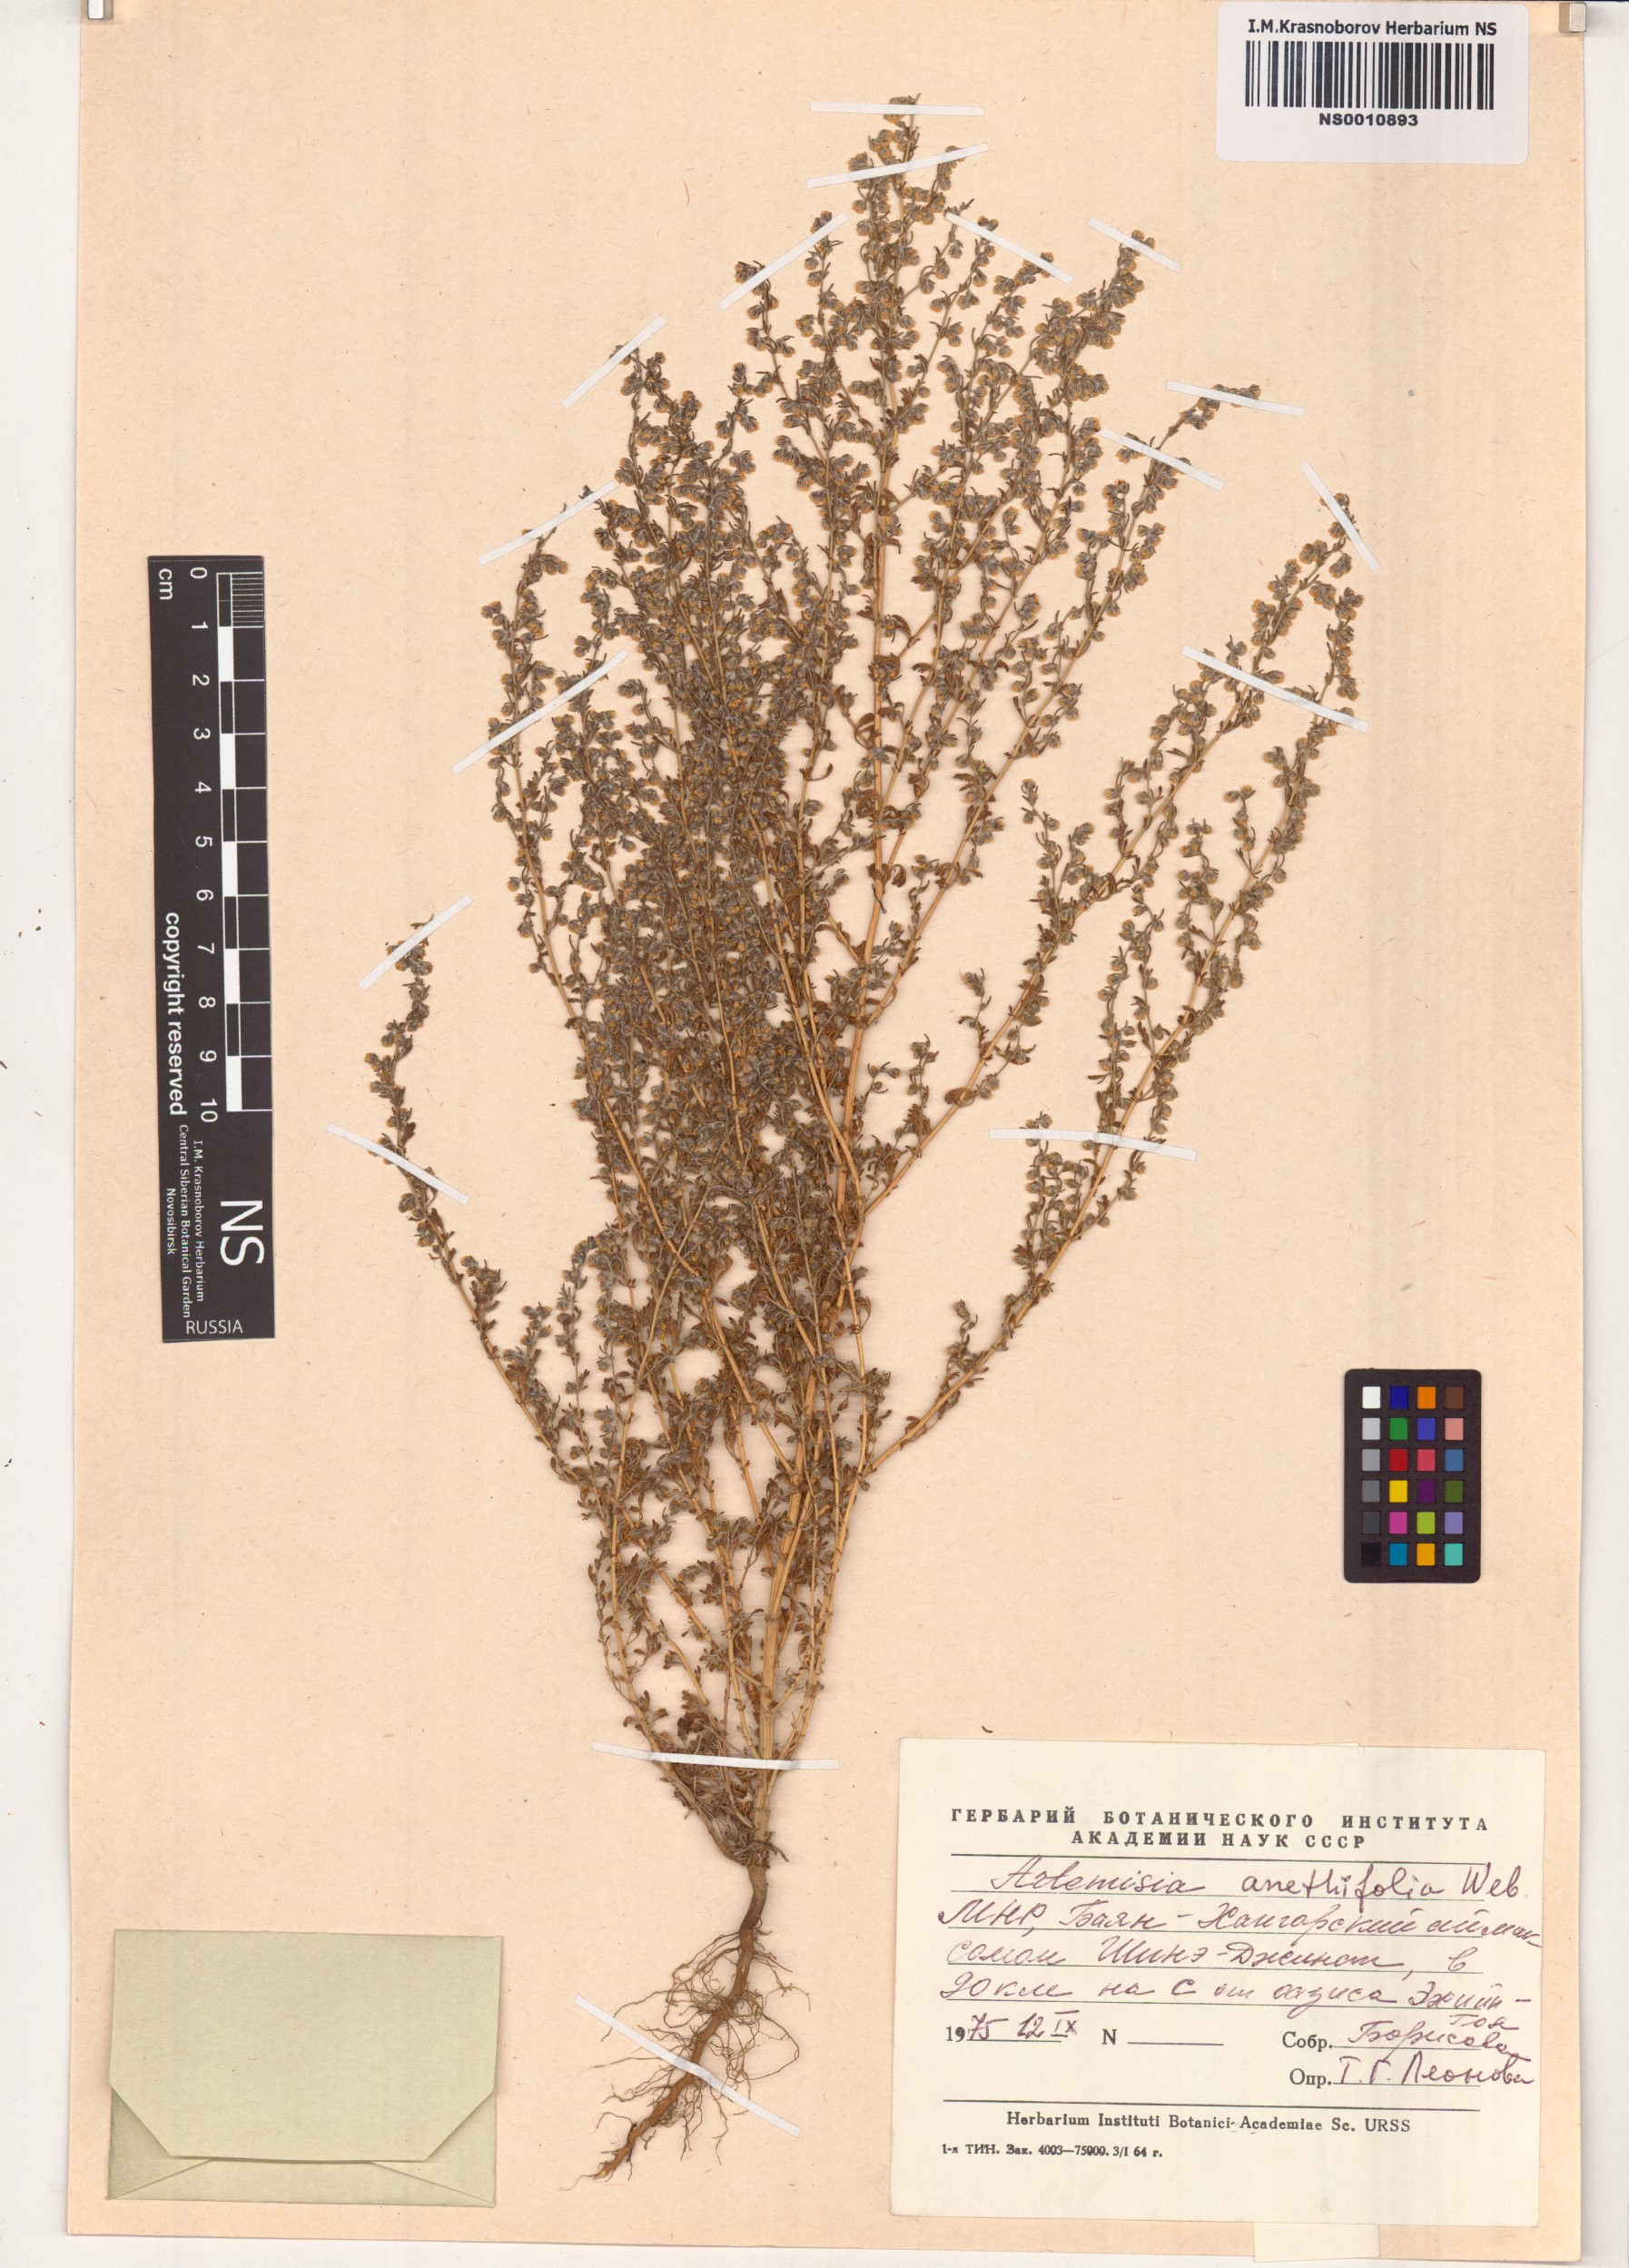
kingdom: Plantae
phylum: Tracheophyta
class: Magnoliopsida
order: Asterales
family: Asteraceae
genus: Artemisia
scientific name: Artemisia anethifolia
